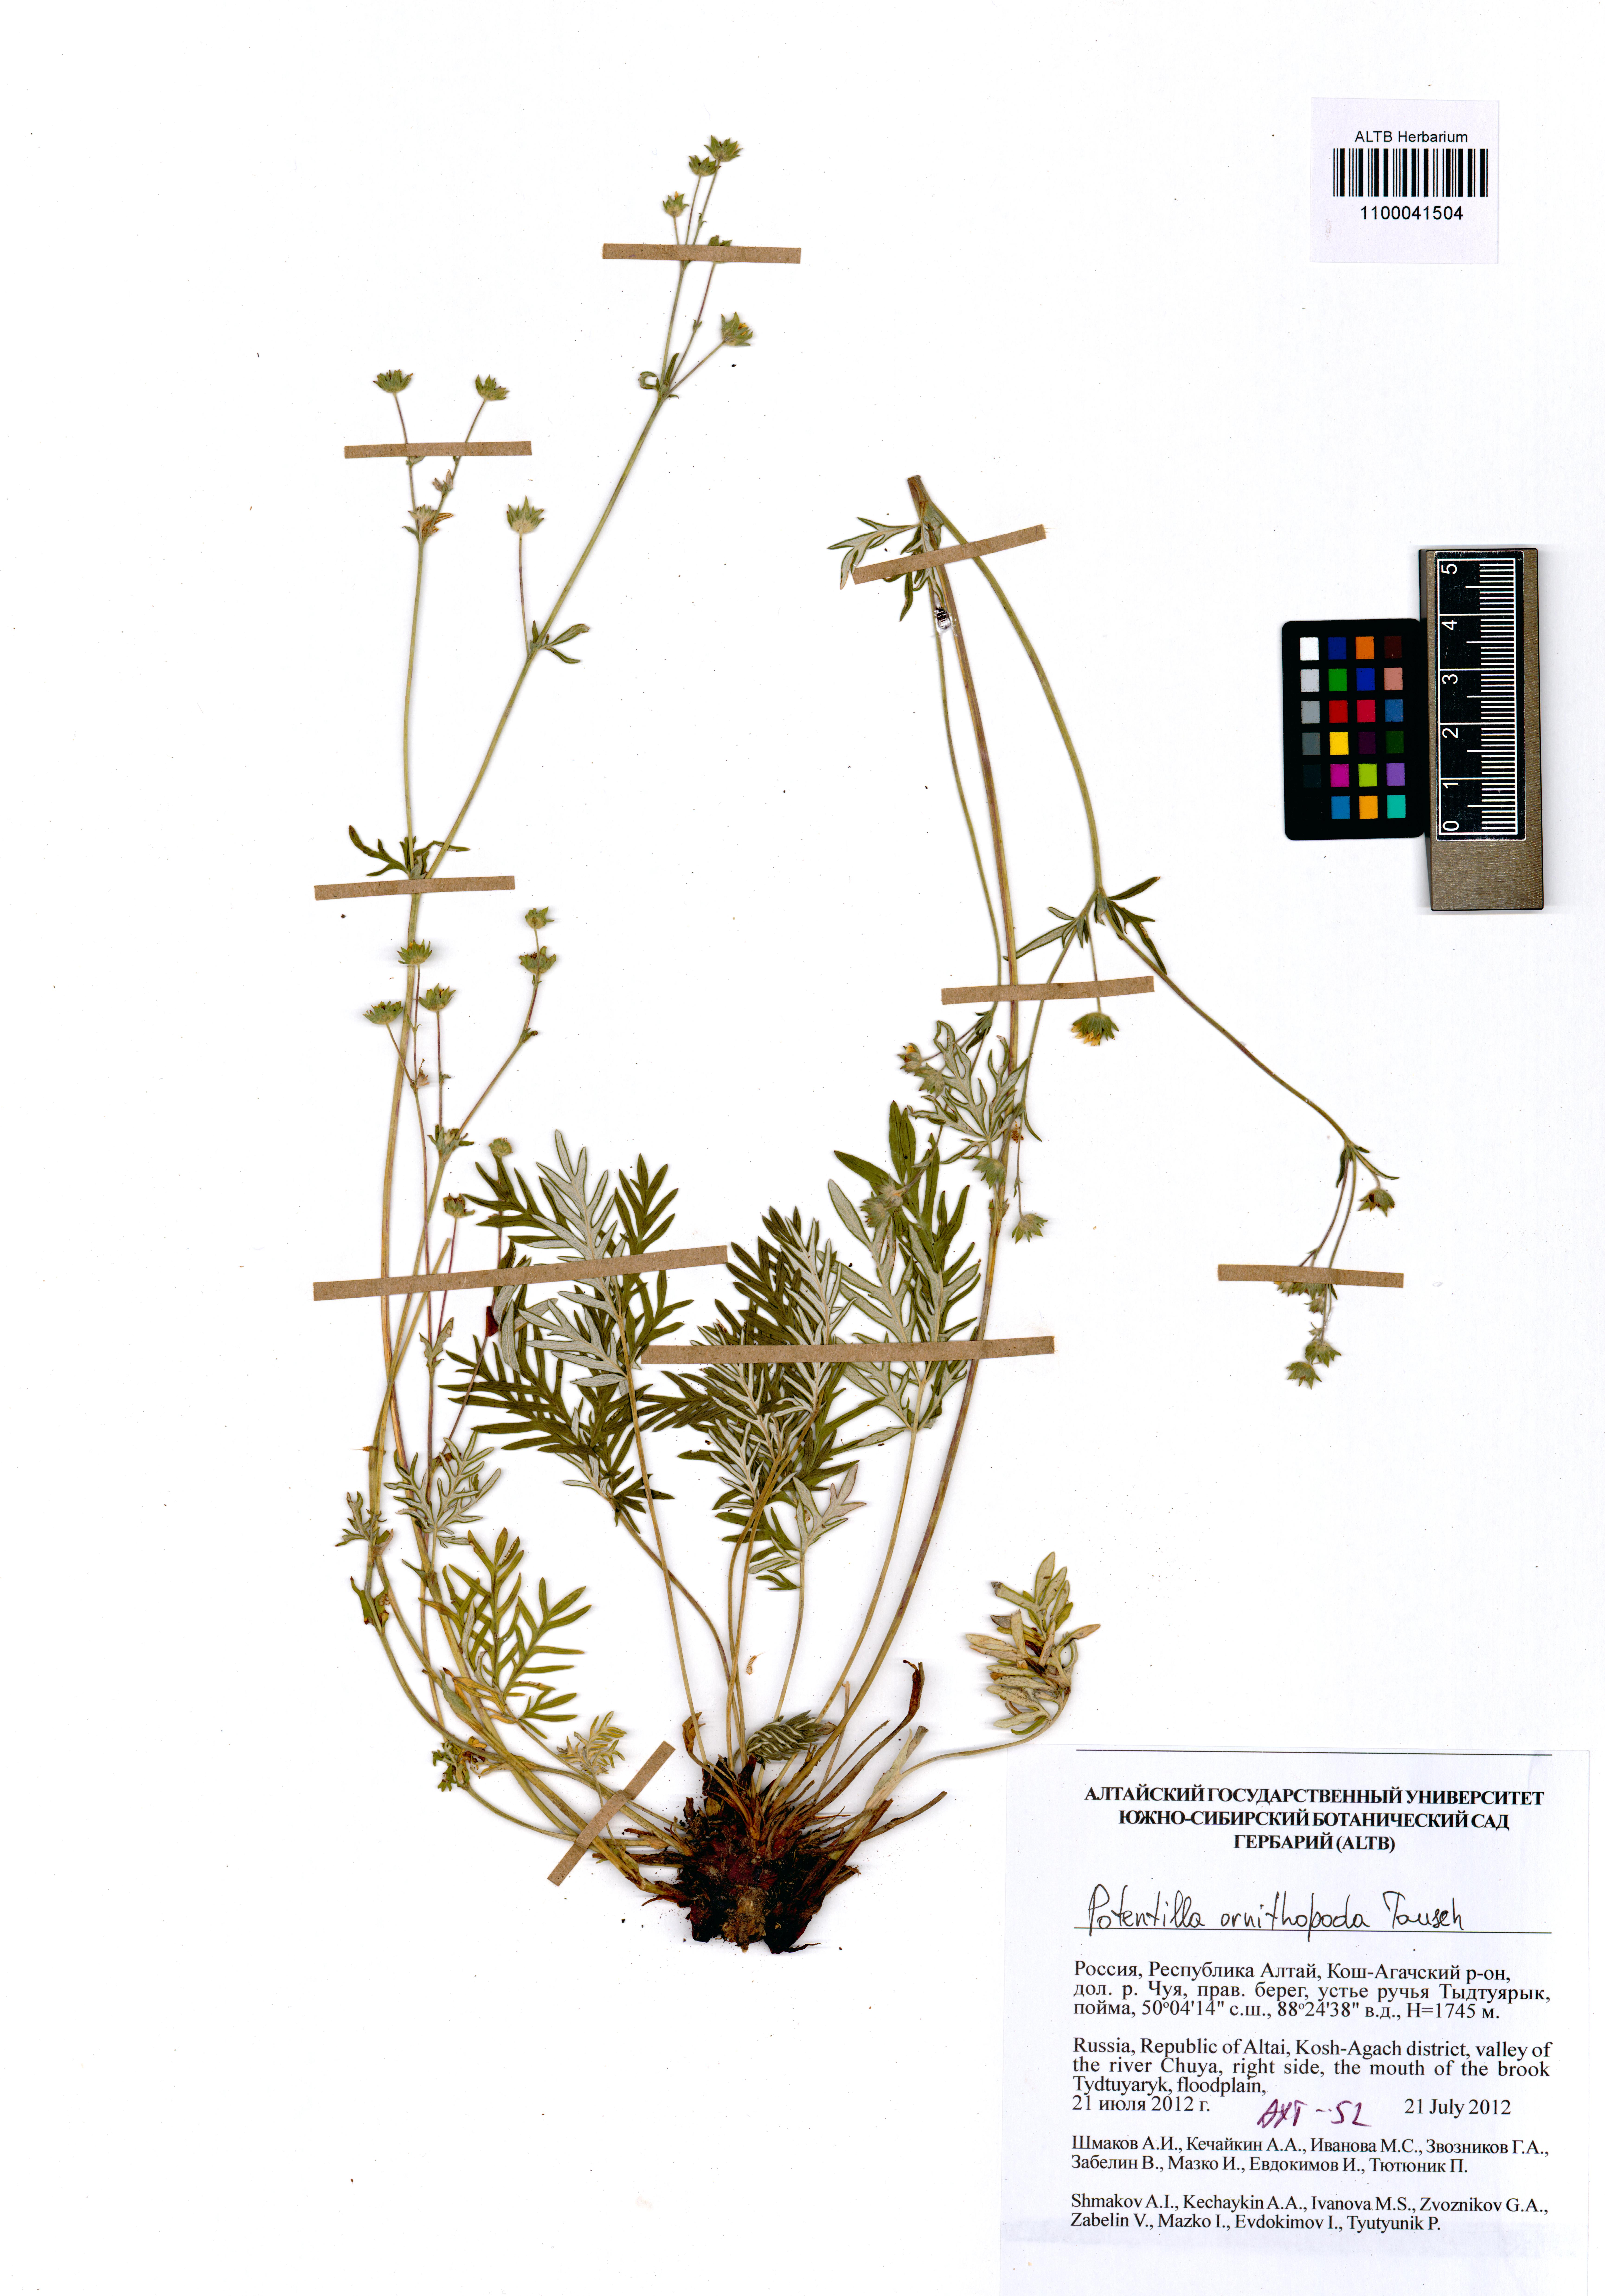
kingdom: Plantae
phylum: Tracheophyta
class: Magnoliopsida
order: Rosales
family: Rosaceae
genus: Potentilla
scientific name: Potentilla ornithopoda
